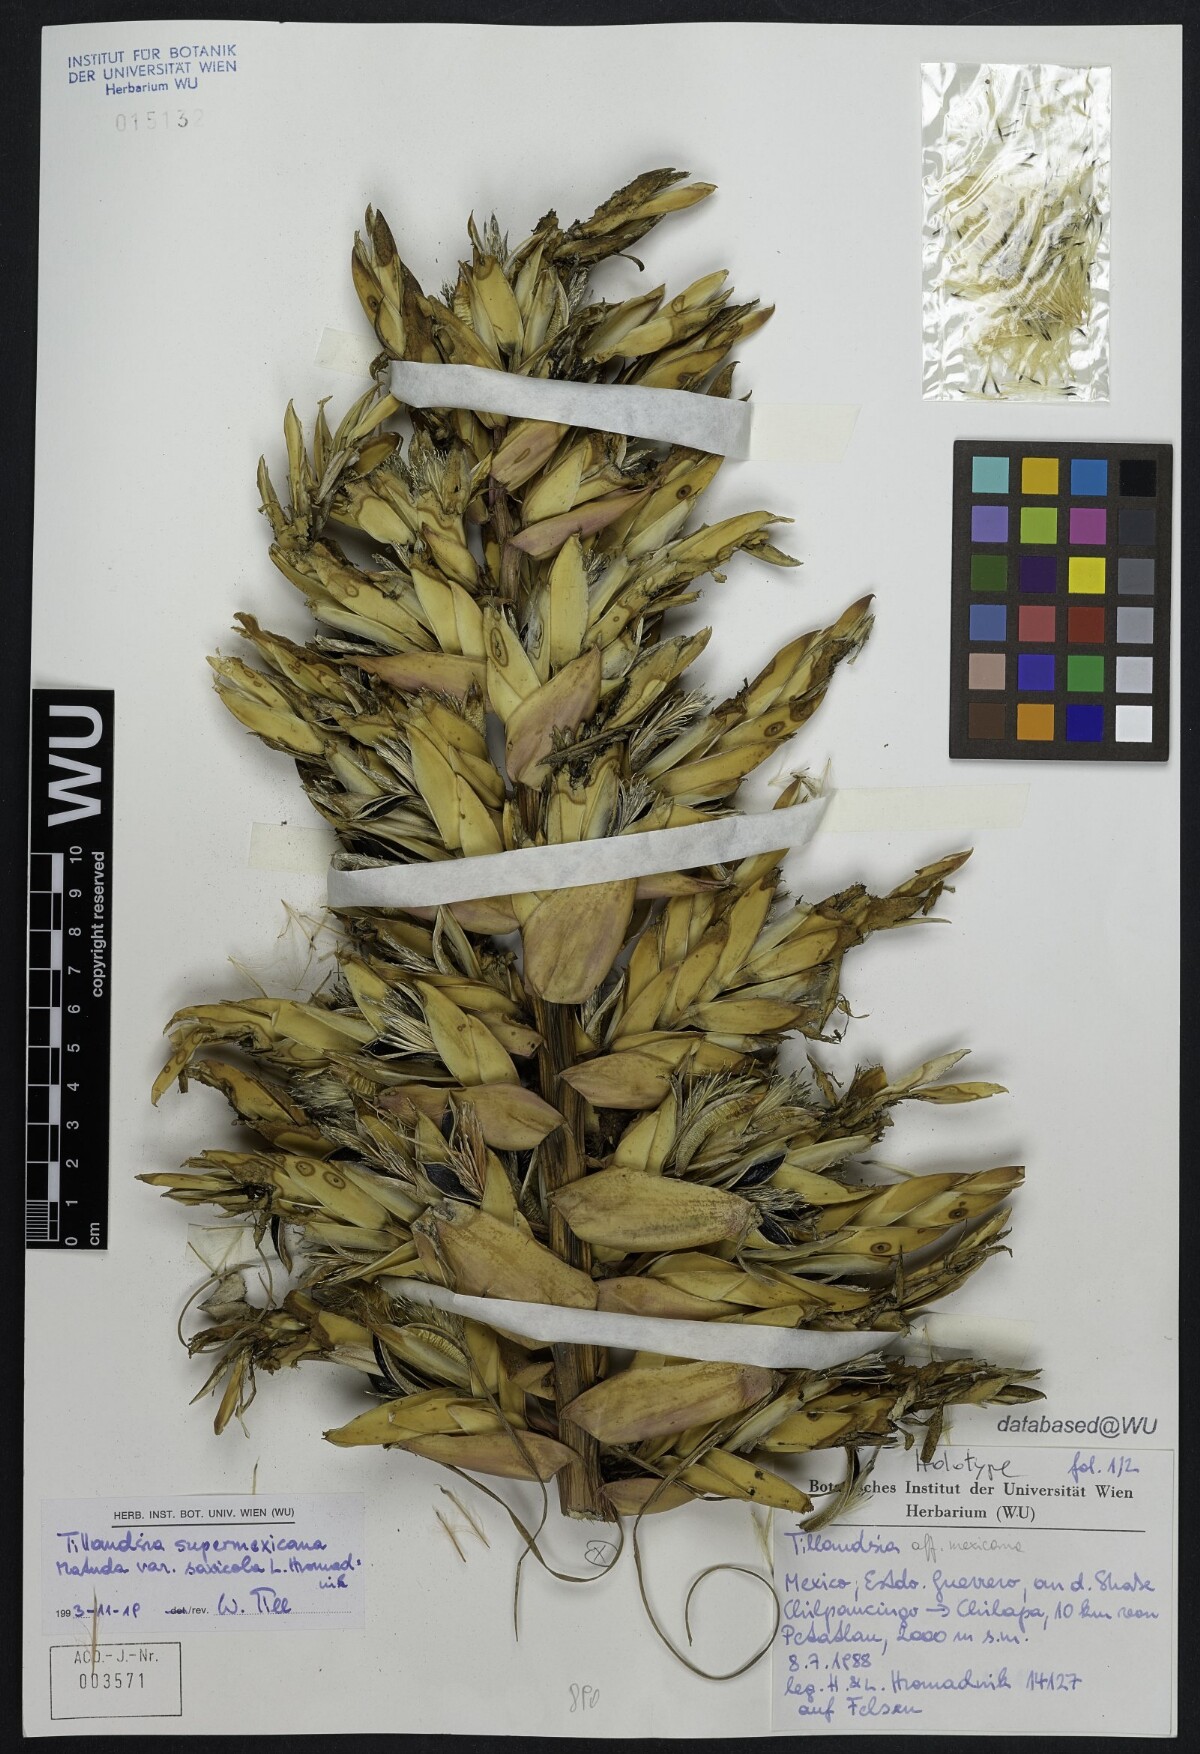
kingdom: Plantae
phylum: Tracheophyta
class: Liliopsida
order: Poales
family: Bromeliaceae
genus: Tillandsia
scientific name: Tillandsia supermexicana
